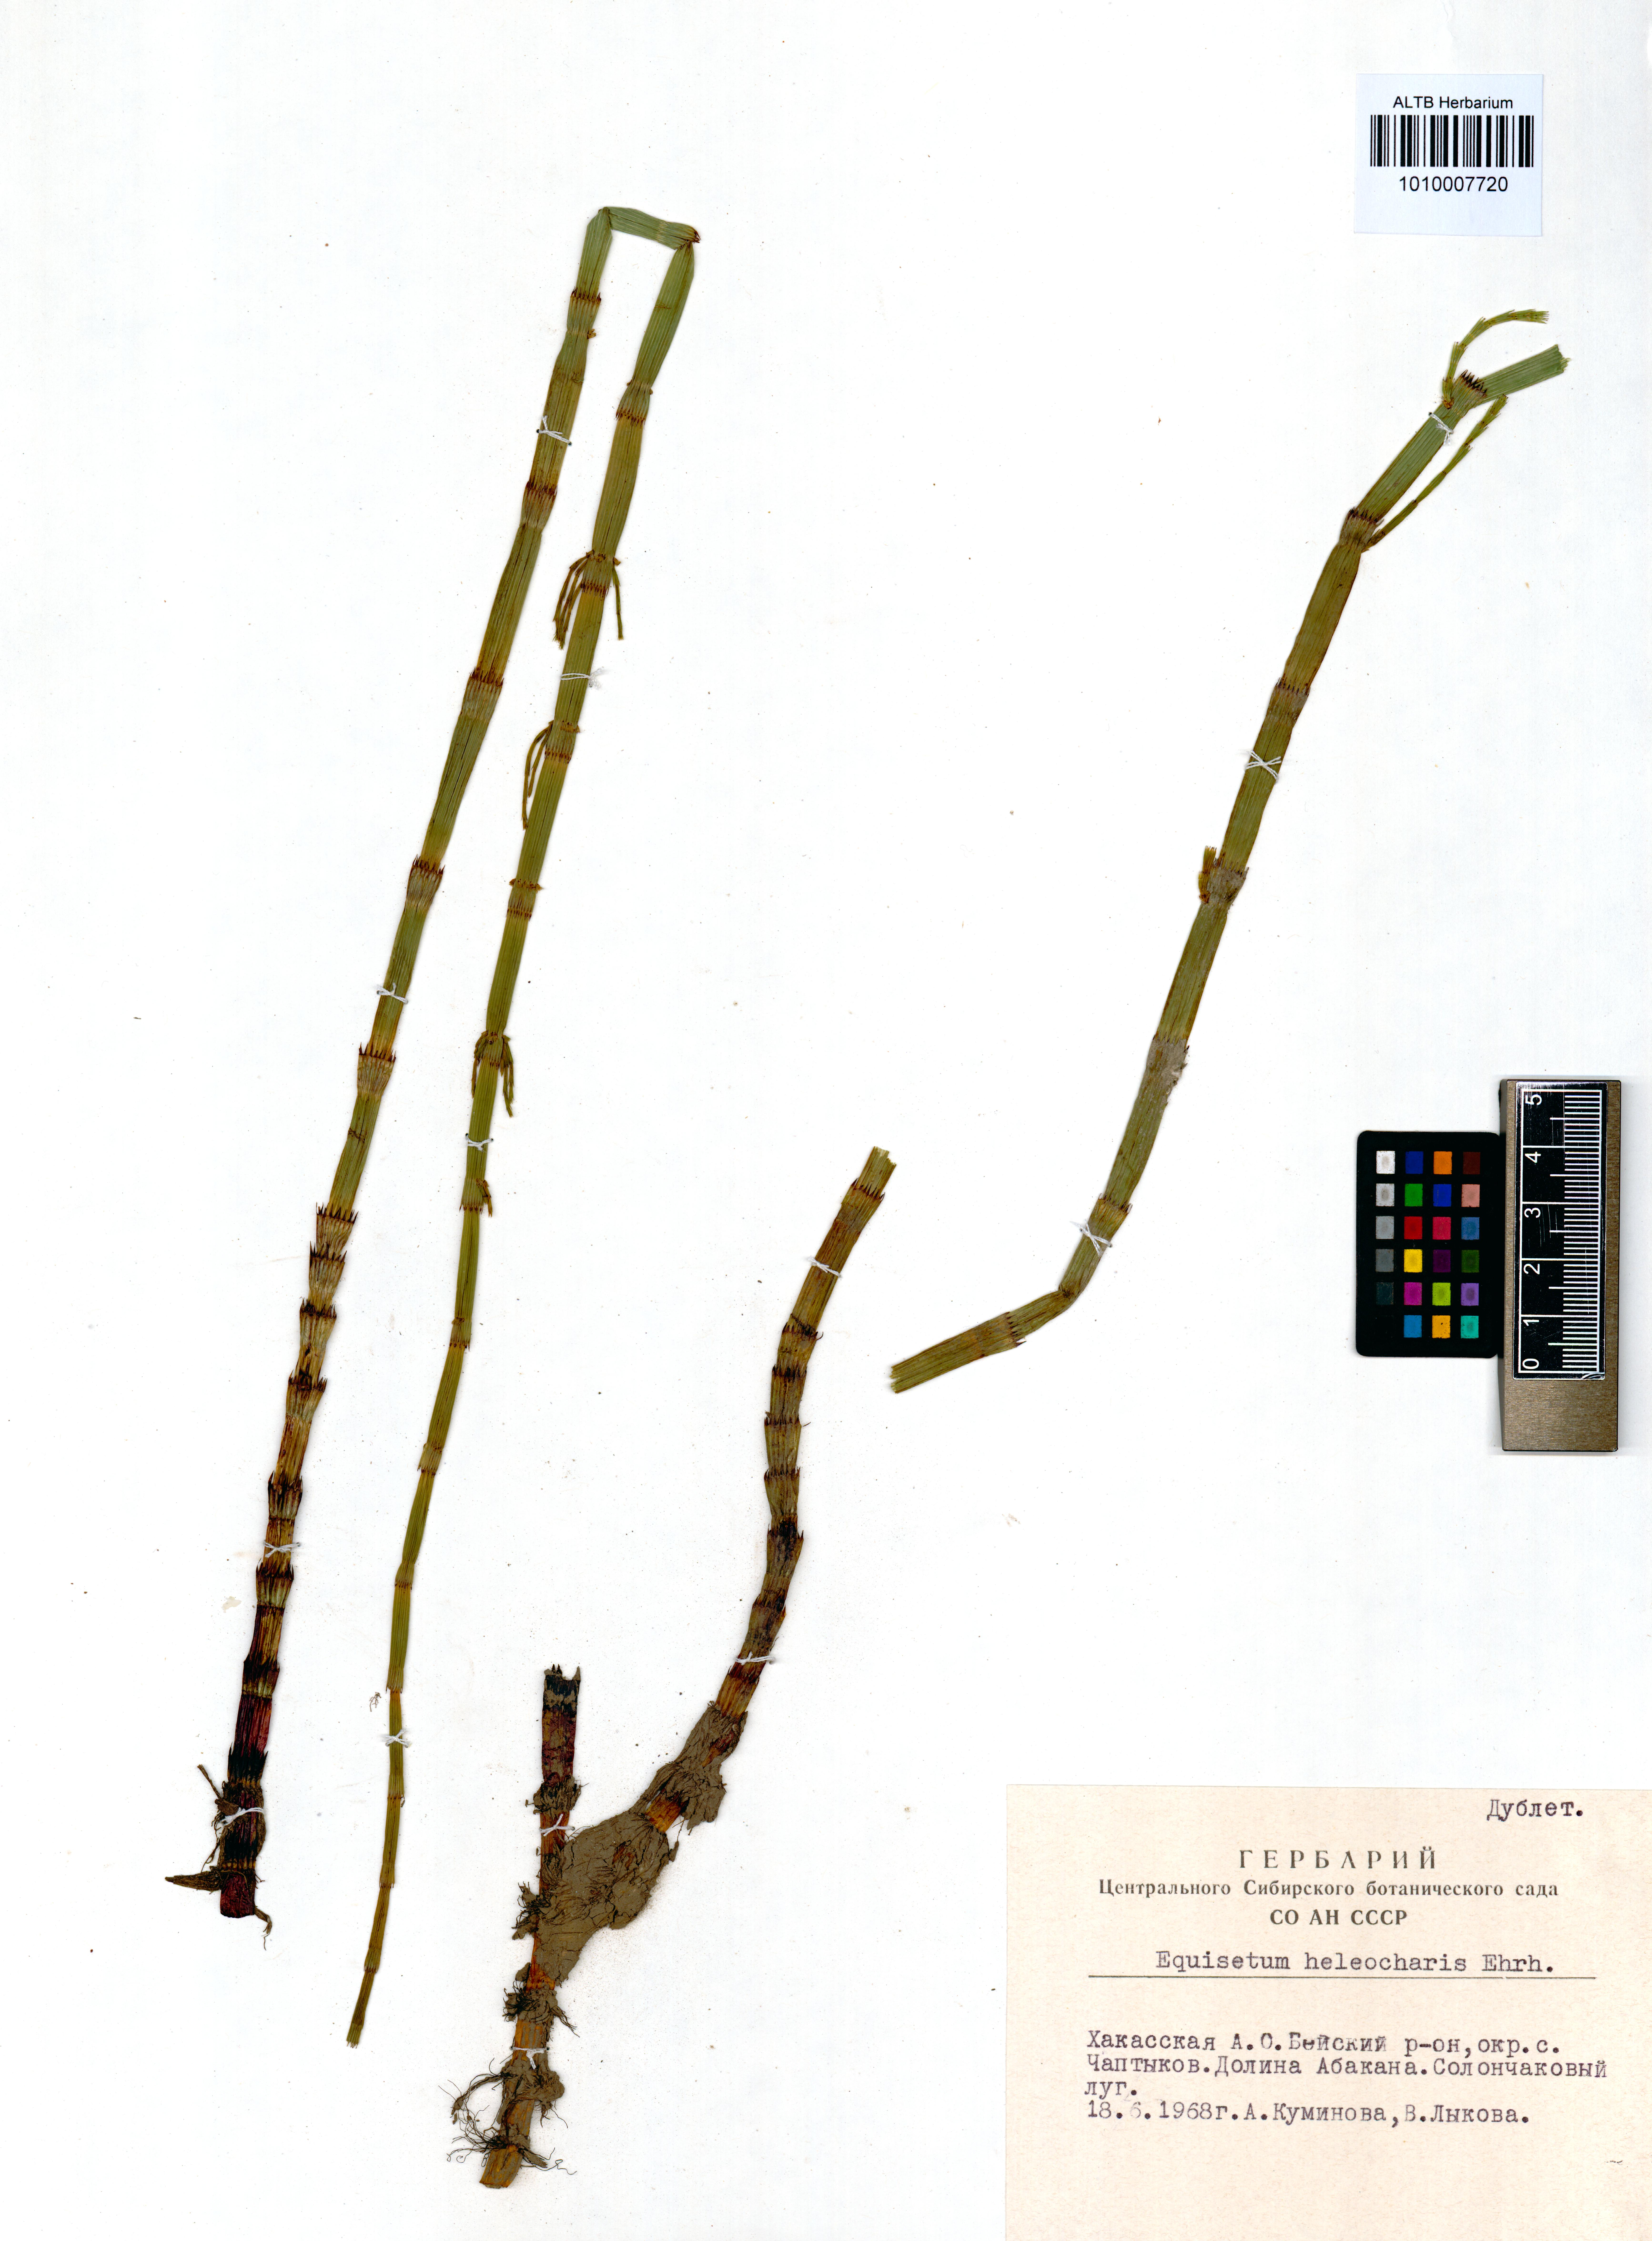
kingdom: Plantae
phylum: Tracheophyta
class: Polypodiopsida
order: Equisetales
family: Equisetaceae
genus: Equisetum
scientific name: Equisetum fluviatile
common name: Water horsetail
